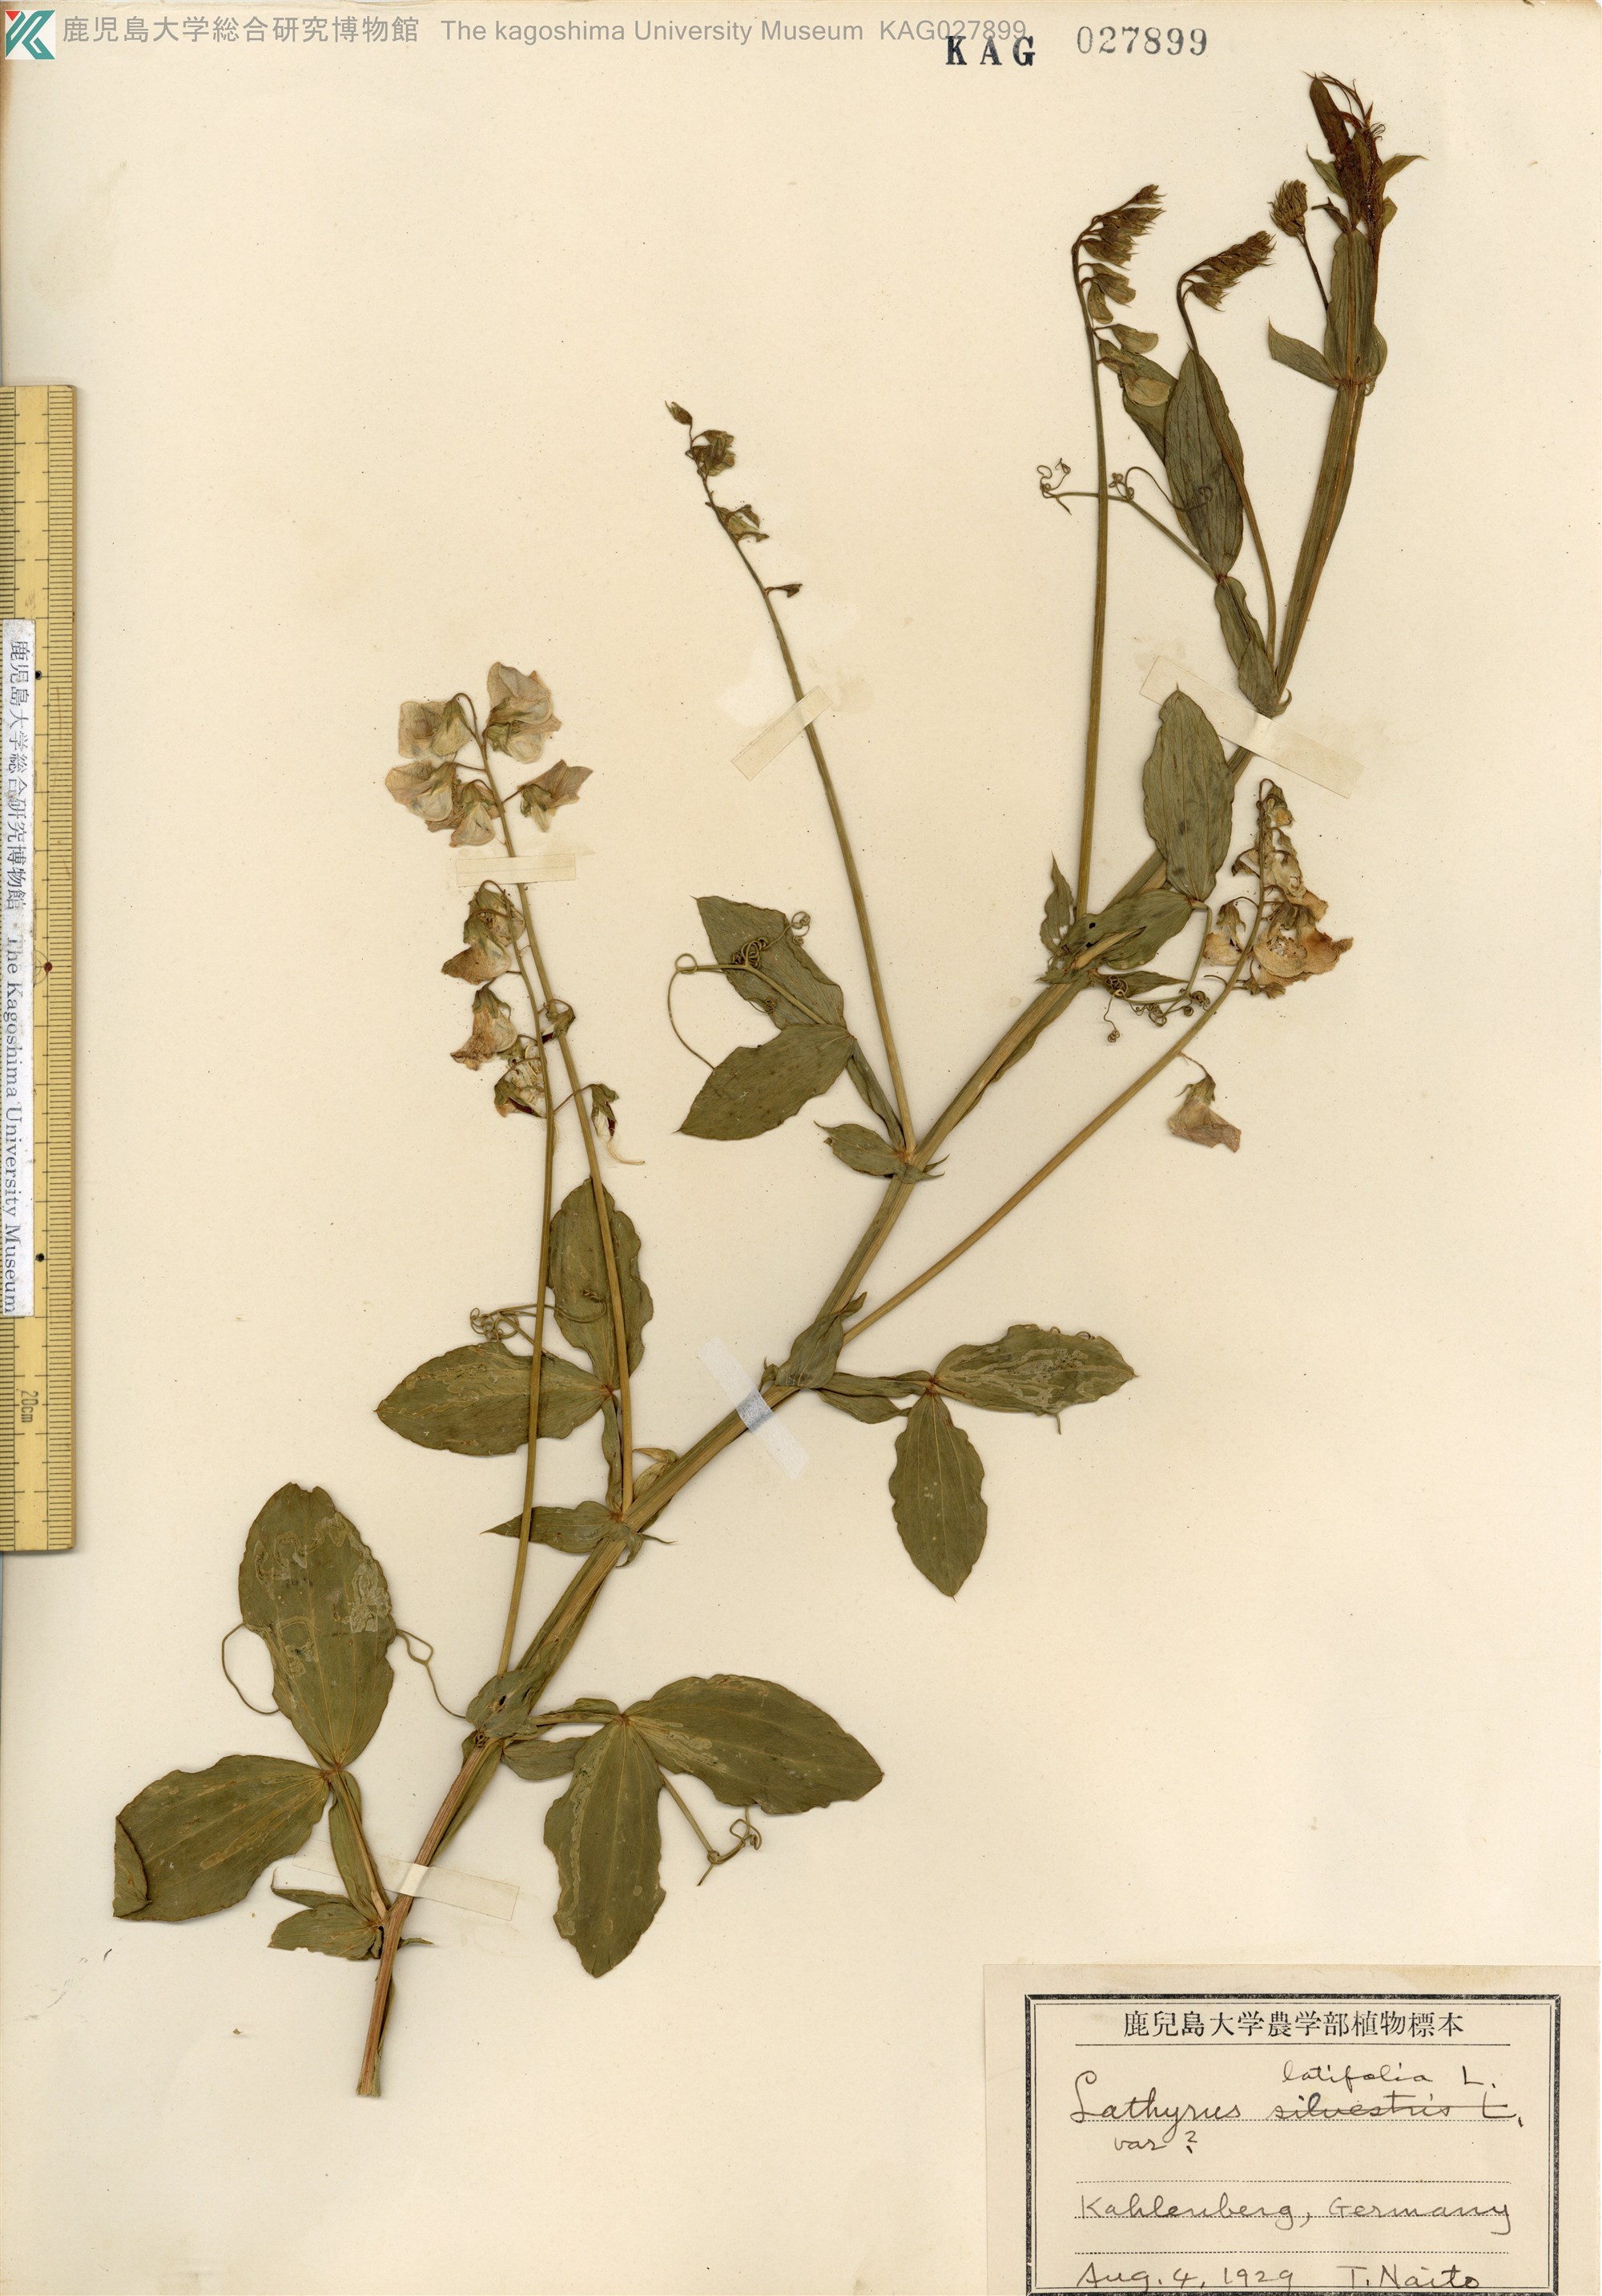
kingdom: Plantae
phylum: Tracheophyta
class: Magnoliopsida
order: Fabales
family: Fabaceae
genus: Lathyrus
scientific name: Lathyrus latifolius
